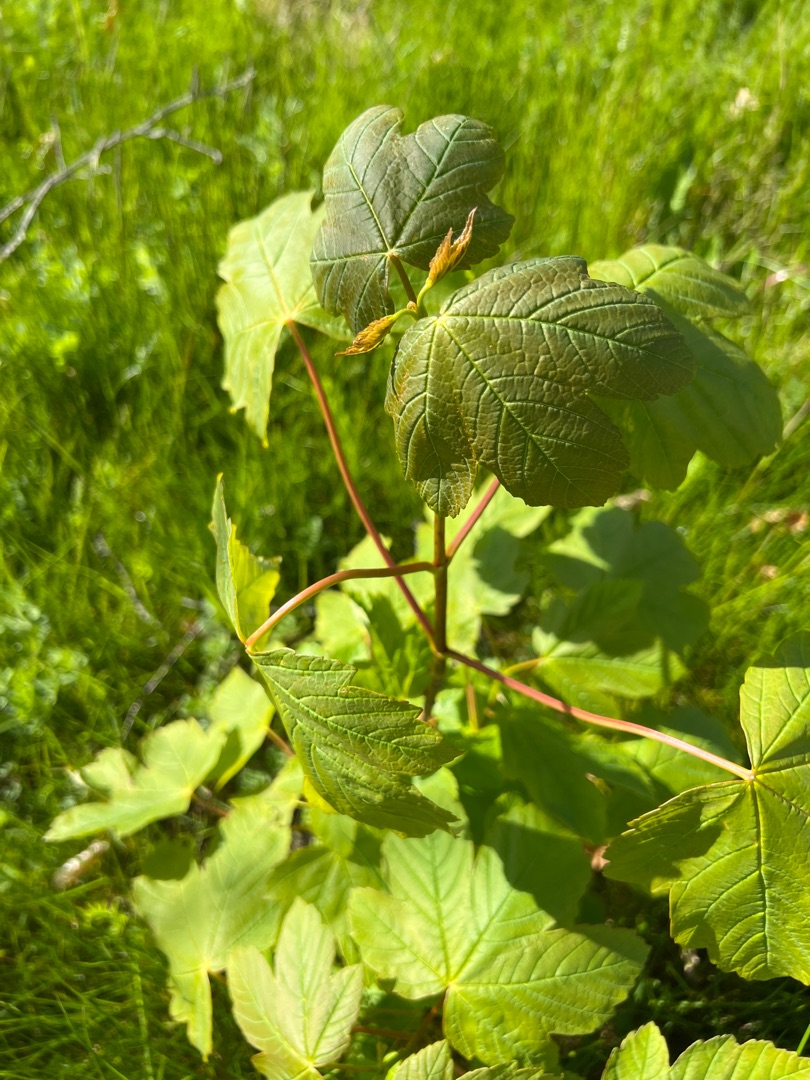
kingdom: Plantae
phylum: Tracheophyta
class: Magnoliopsida
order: Sapindales
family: Sapindaceae
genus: Acer
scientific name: Acer pseudoplatanus
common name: Ahorn
